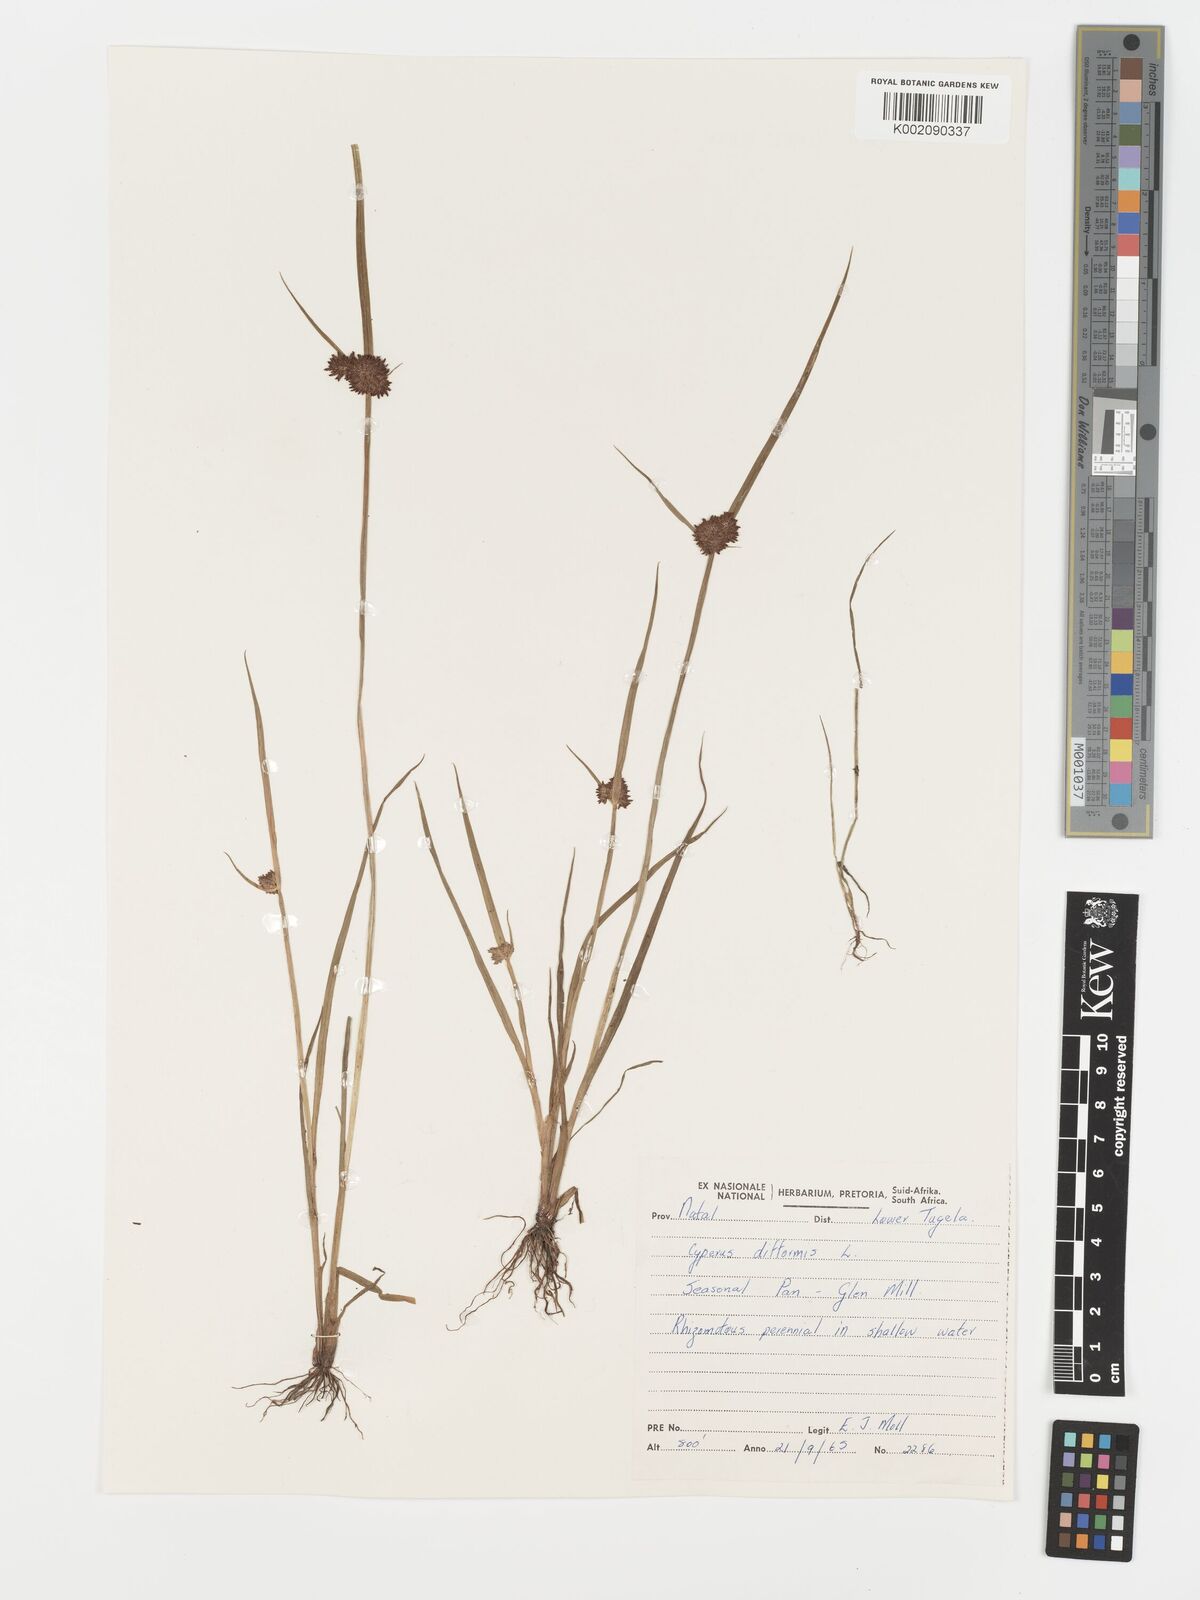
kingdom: Plantae
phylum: Tracheophyta
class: Liliopsida
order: Poales
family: Cyperaceae
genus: Cyperus
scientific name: Cyperus difformis
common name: Variable flatsedge
